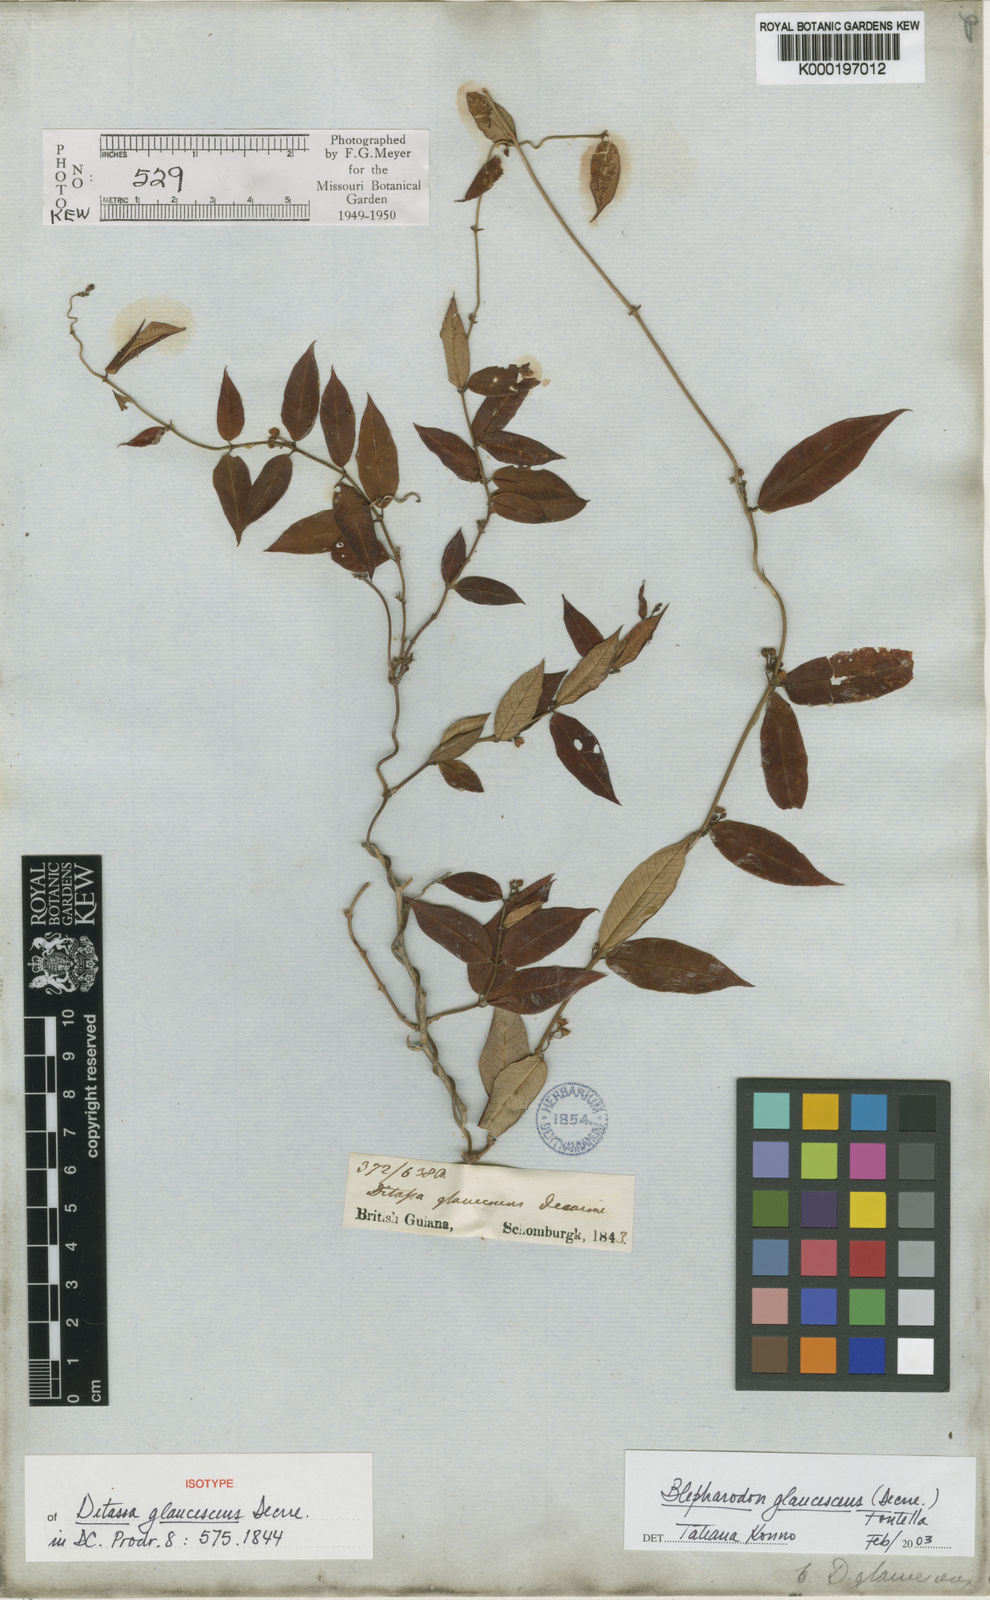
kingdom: Plantae
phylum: Tracheophyta
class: Magnoliopsida
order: Gentianales
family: Apocynaceae
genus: Blepharodon
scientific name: Blepharodon glaucescens
